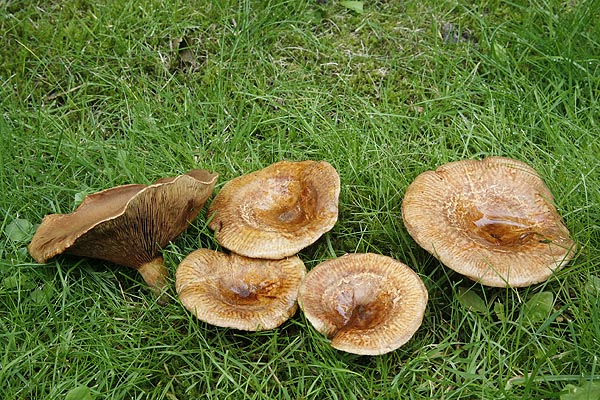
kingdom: Fungi
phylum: Basidiomycota
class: Agaricomycetes
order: Boletales
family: Paxillaceae
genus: Paxillus
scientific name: Paxillus involutus
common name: almindelig netbladhat
